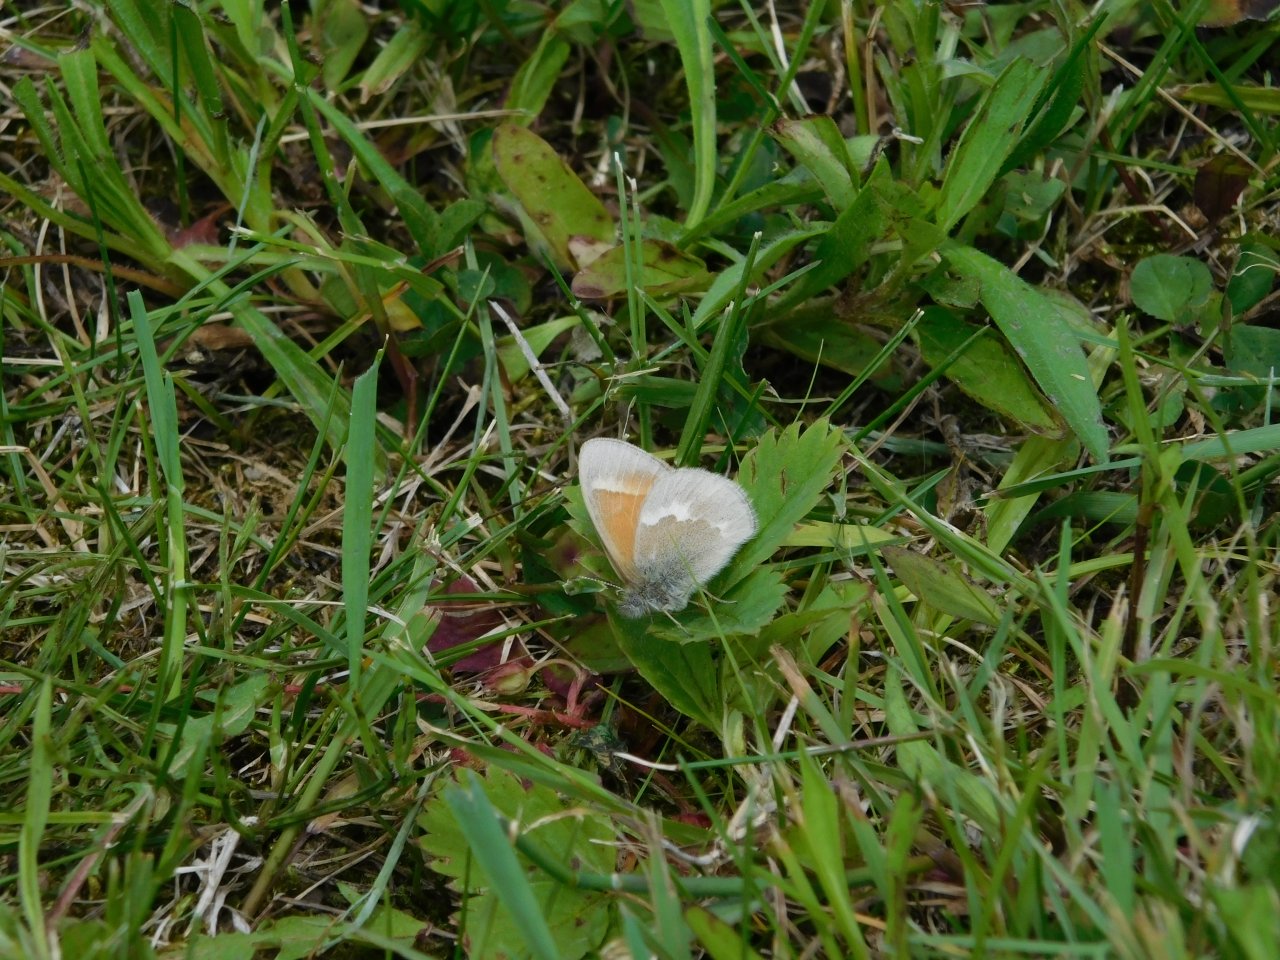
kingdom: Animalia
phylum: Arthropoda
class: Insecta
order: Lepidoptera
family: Nymphalidae
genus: Coenonympha
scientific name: Coenonympha tullia
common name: Large Heath
